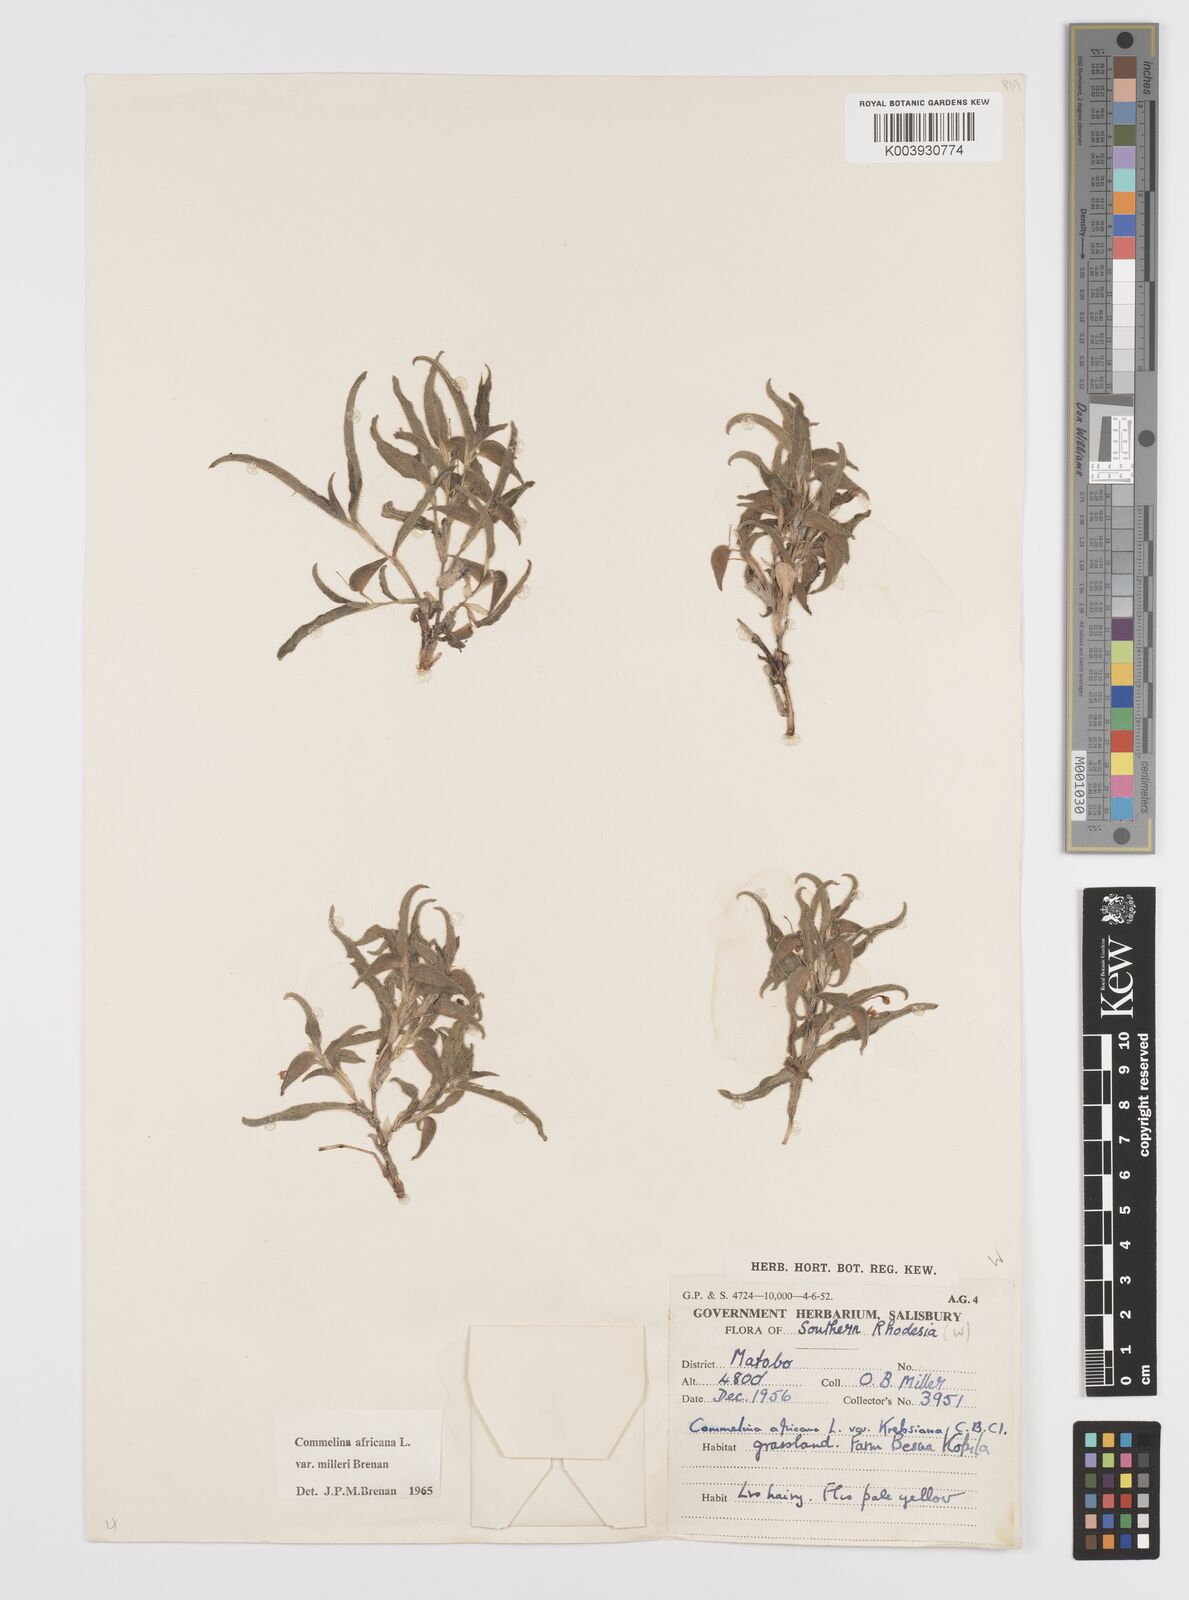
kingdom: Plantae
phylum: Tracheophyta
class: Liliopsida
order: Commelinales
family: Commelinaceae
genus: Commelina
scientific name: Commelina africana
